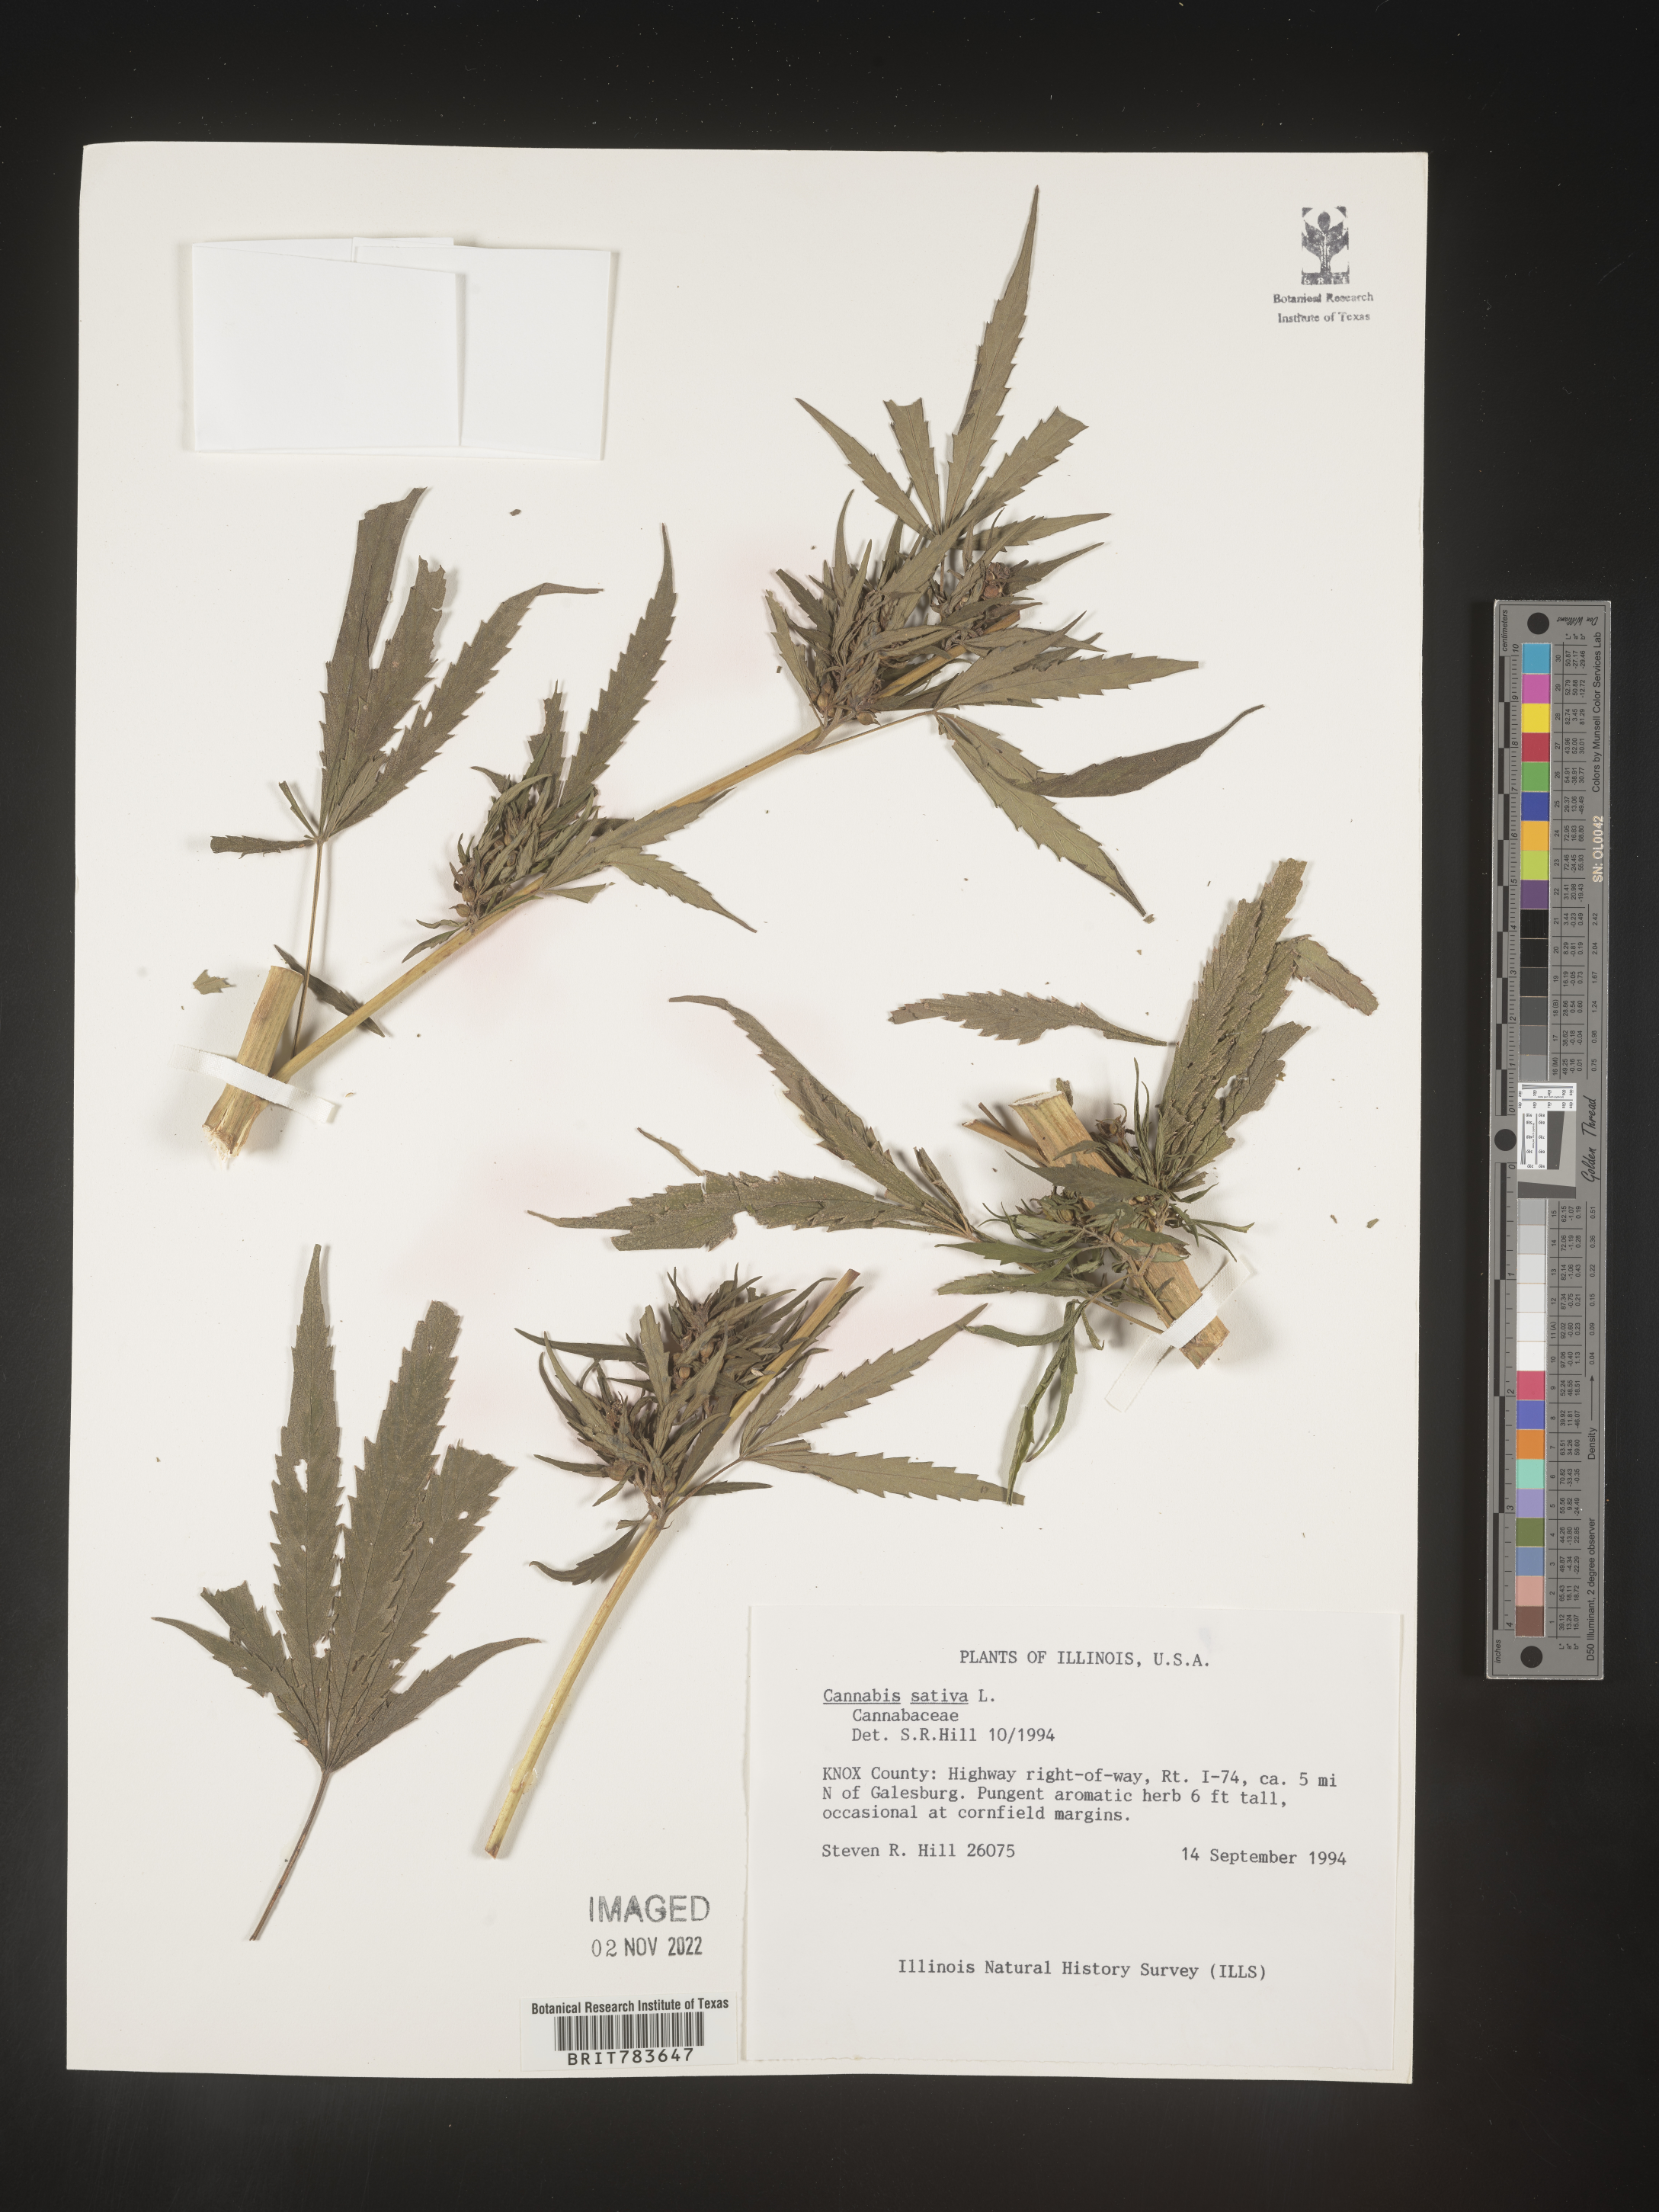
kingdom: Plantae
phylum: Tracheophyta
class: Magnoliopsida
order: Rosales
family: Cannabaceae
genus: Cannabis
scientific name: Cannabis sativa
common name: Hemp
